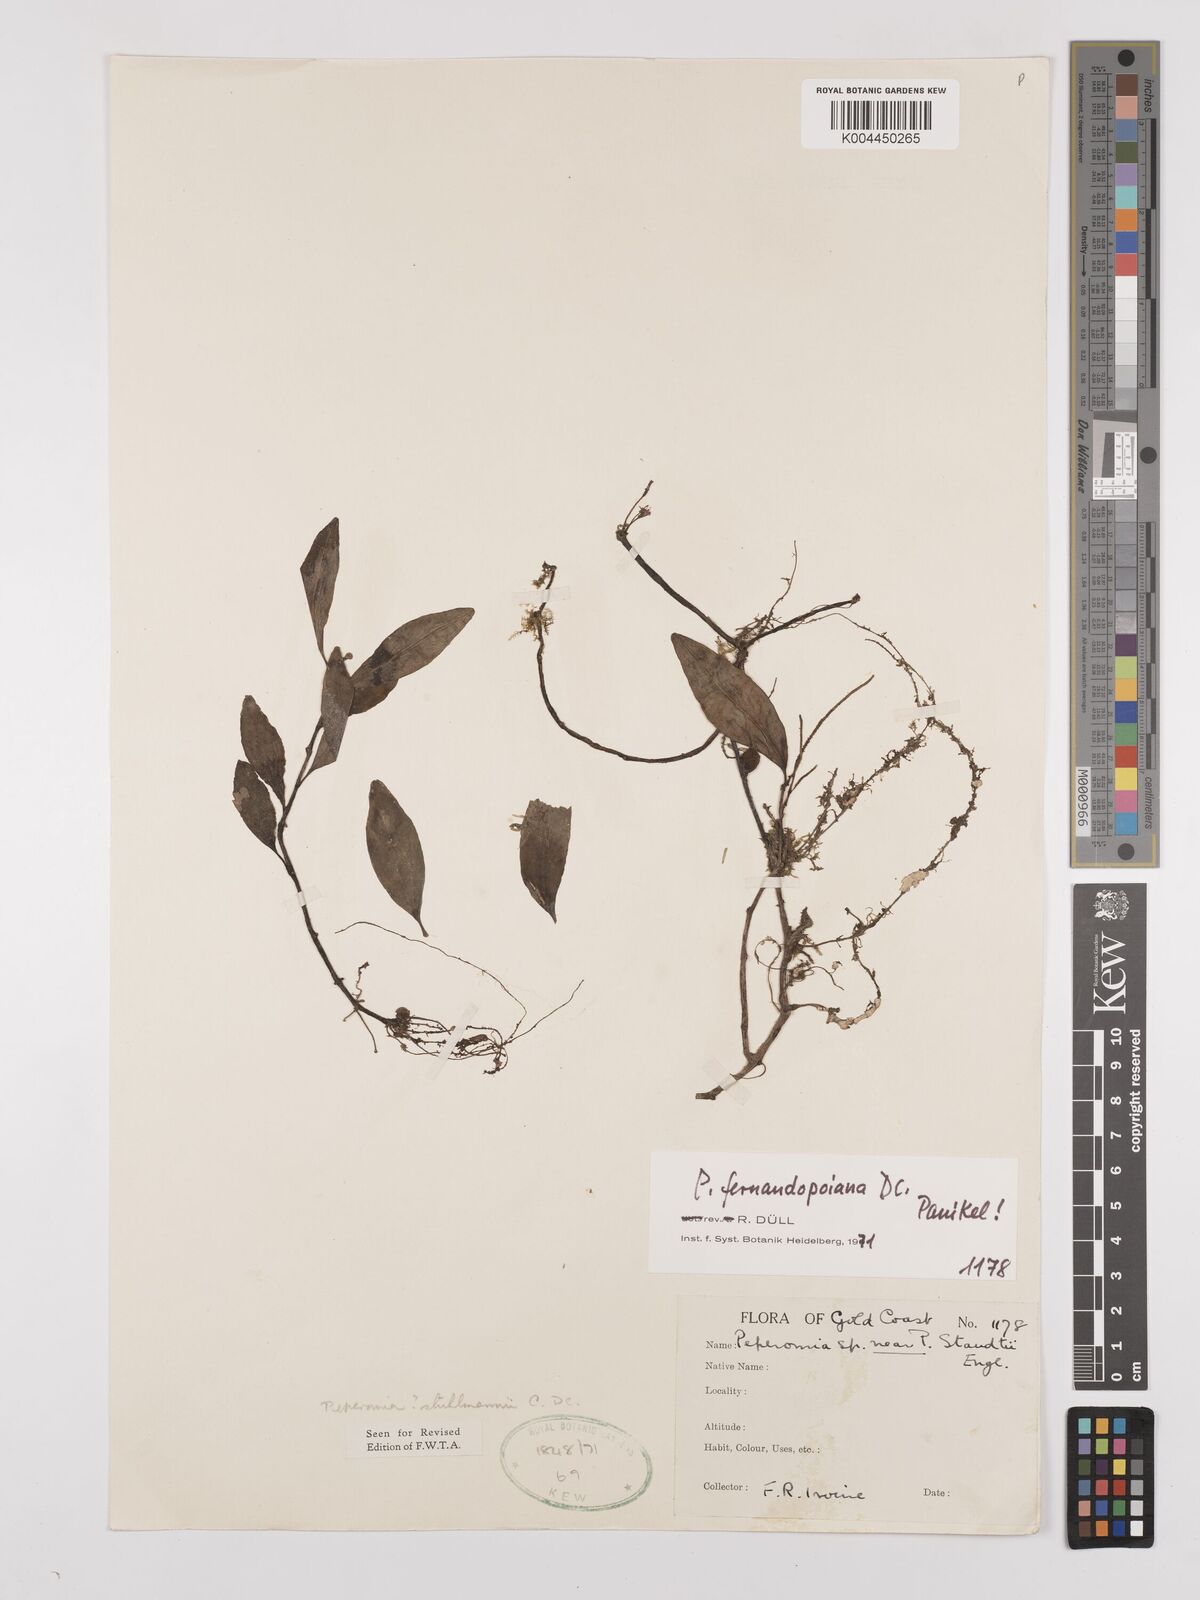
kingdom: Plantae
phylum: Tracheophyta
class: Magnoliopsida
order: Piperales
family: Piperaceae
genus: Peperomia
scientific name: Peperomia fernandeziana
